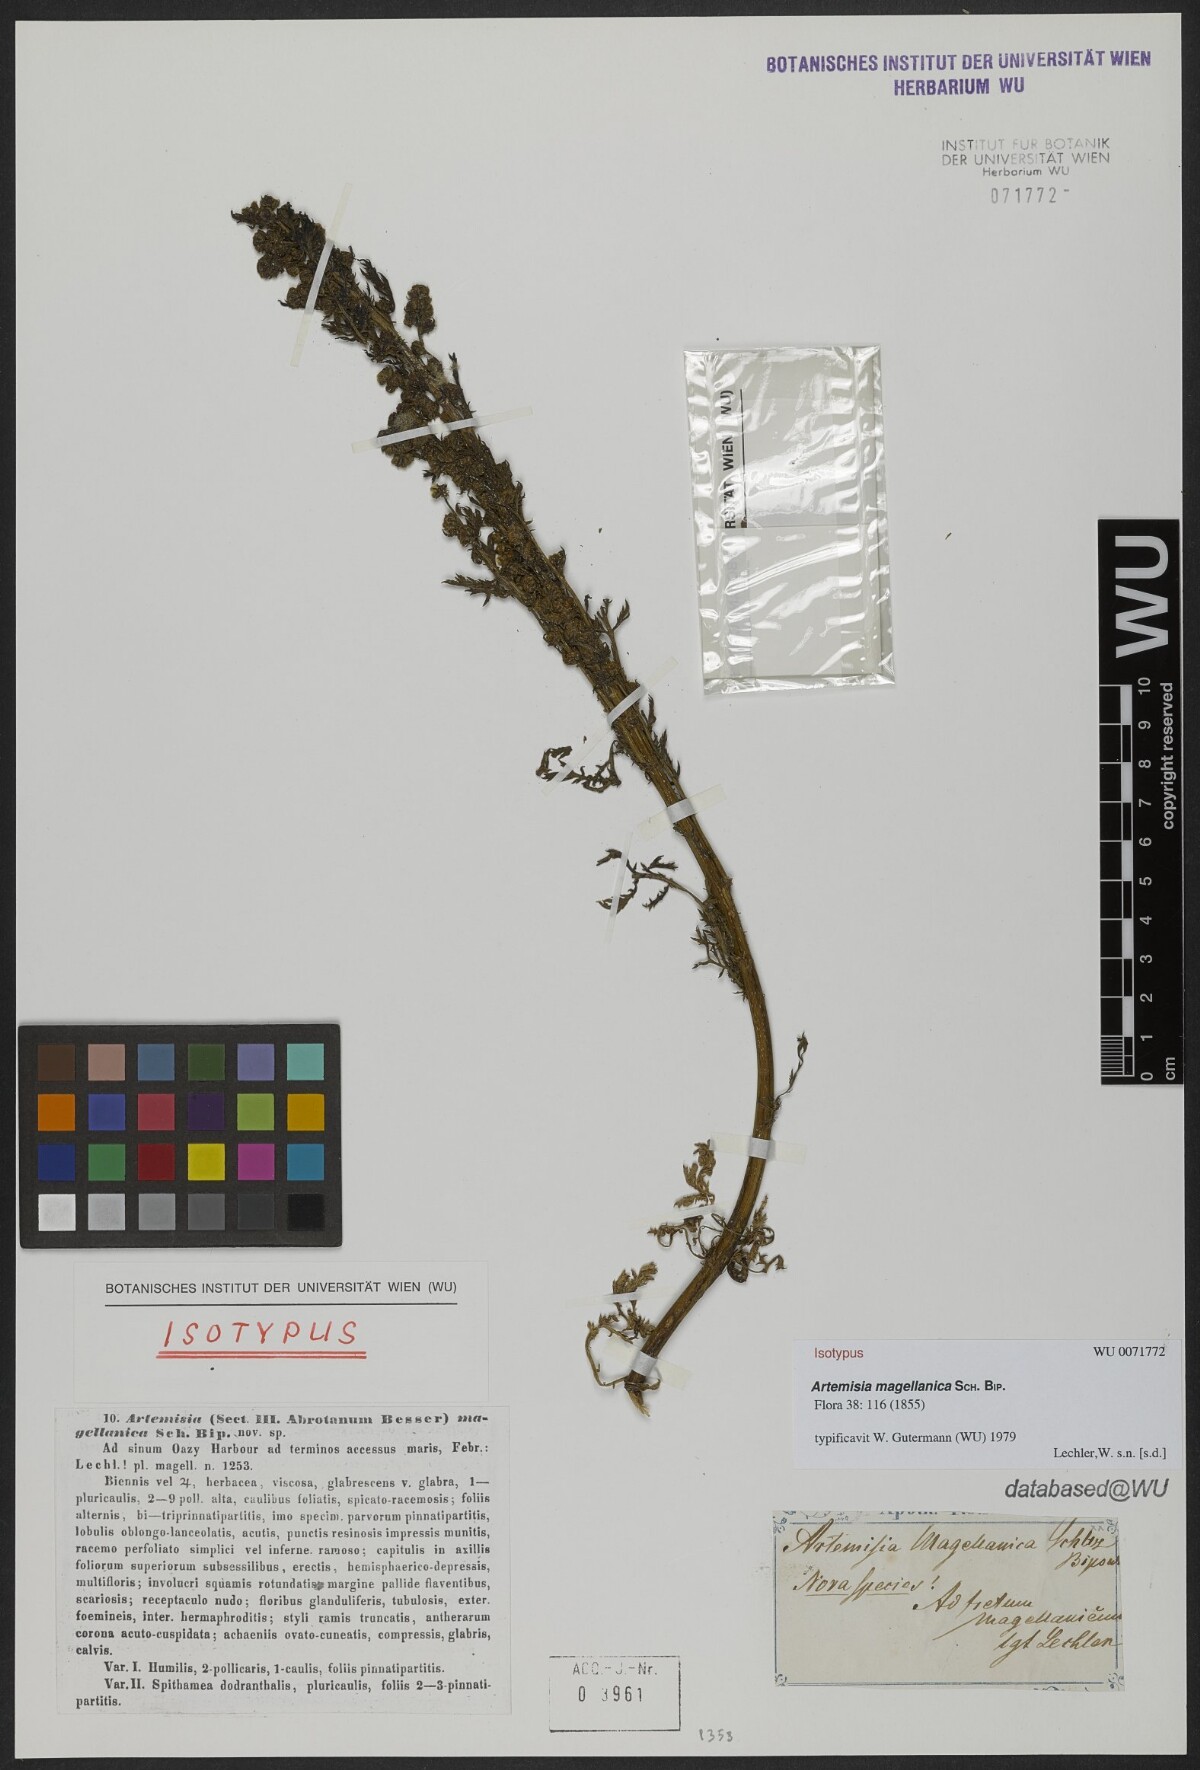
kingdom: Plantae
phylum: Tracheophyta
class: Magnoliopsida
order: Asterales
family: Asteraceae
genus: Artemisia
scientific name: Artemisia magellanica
